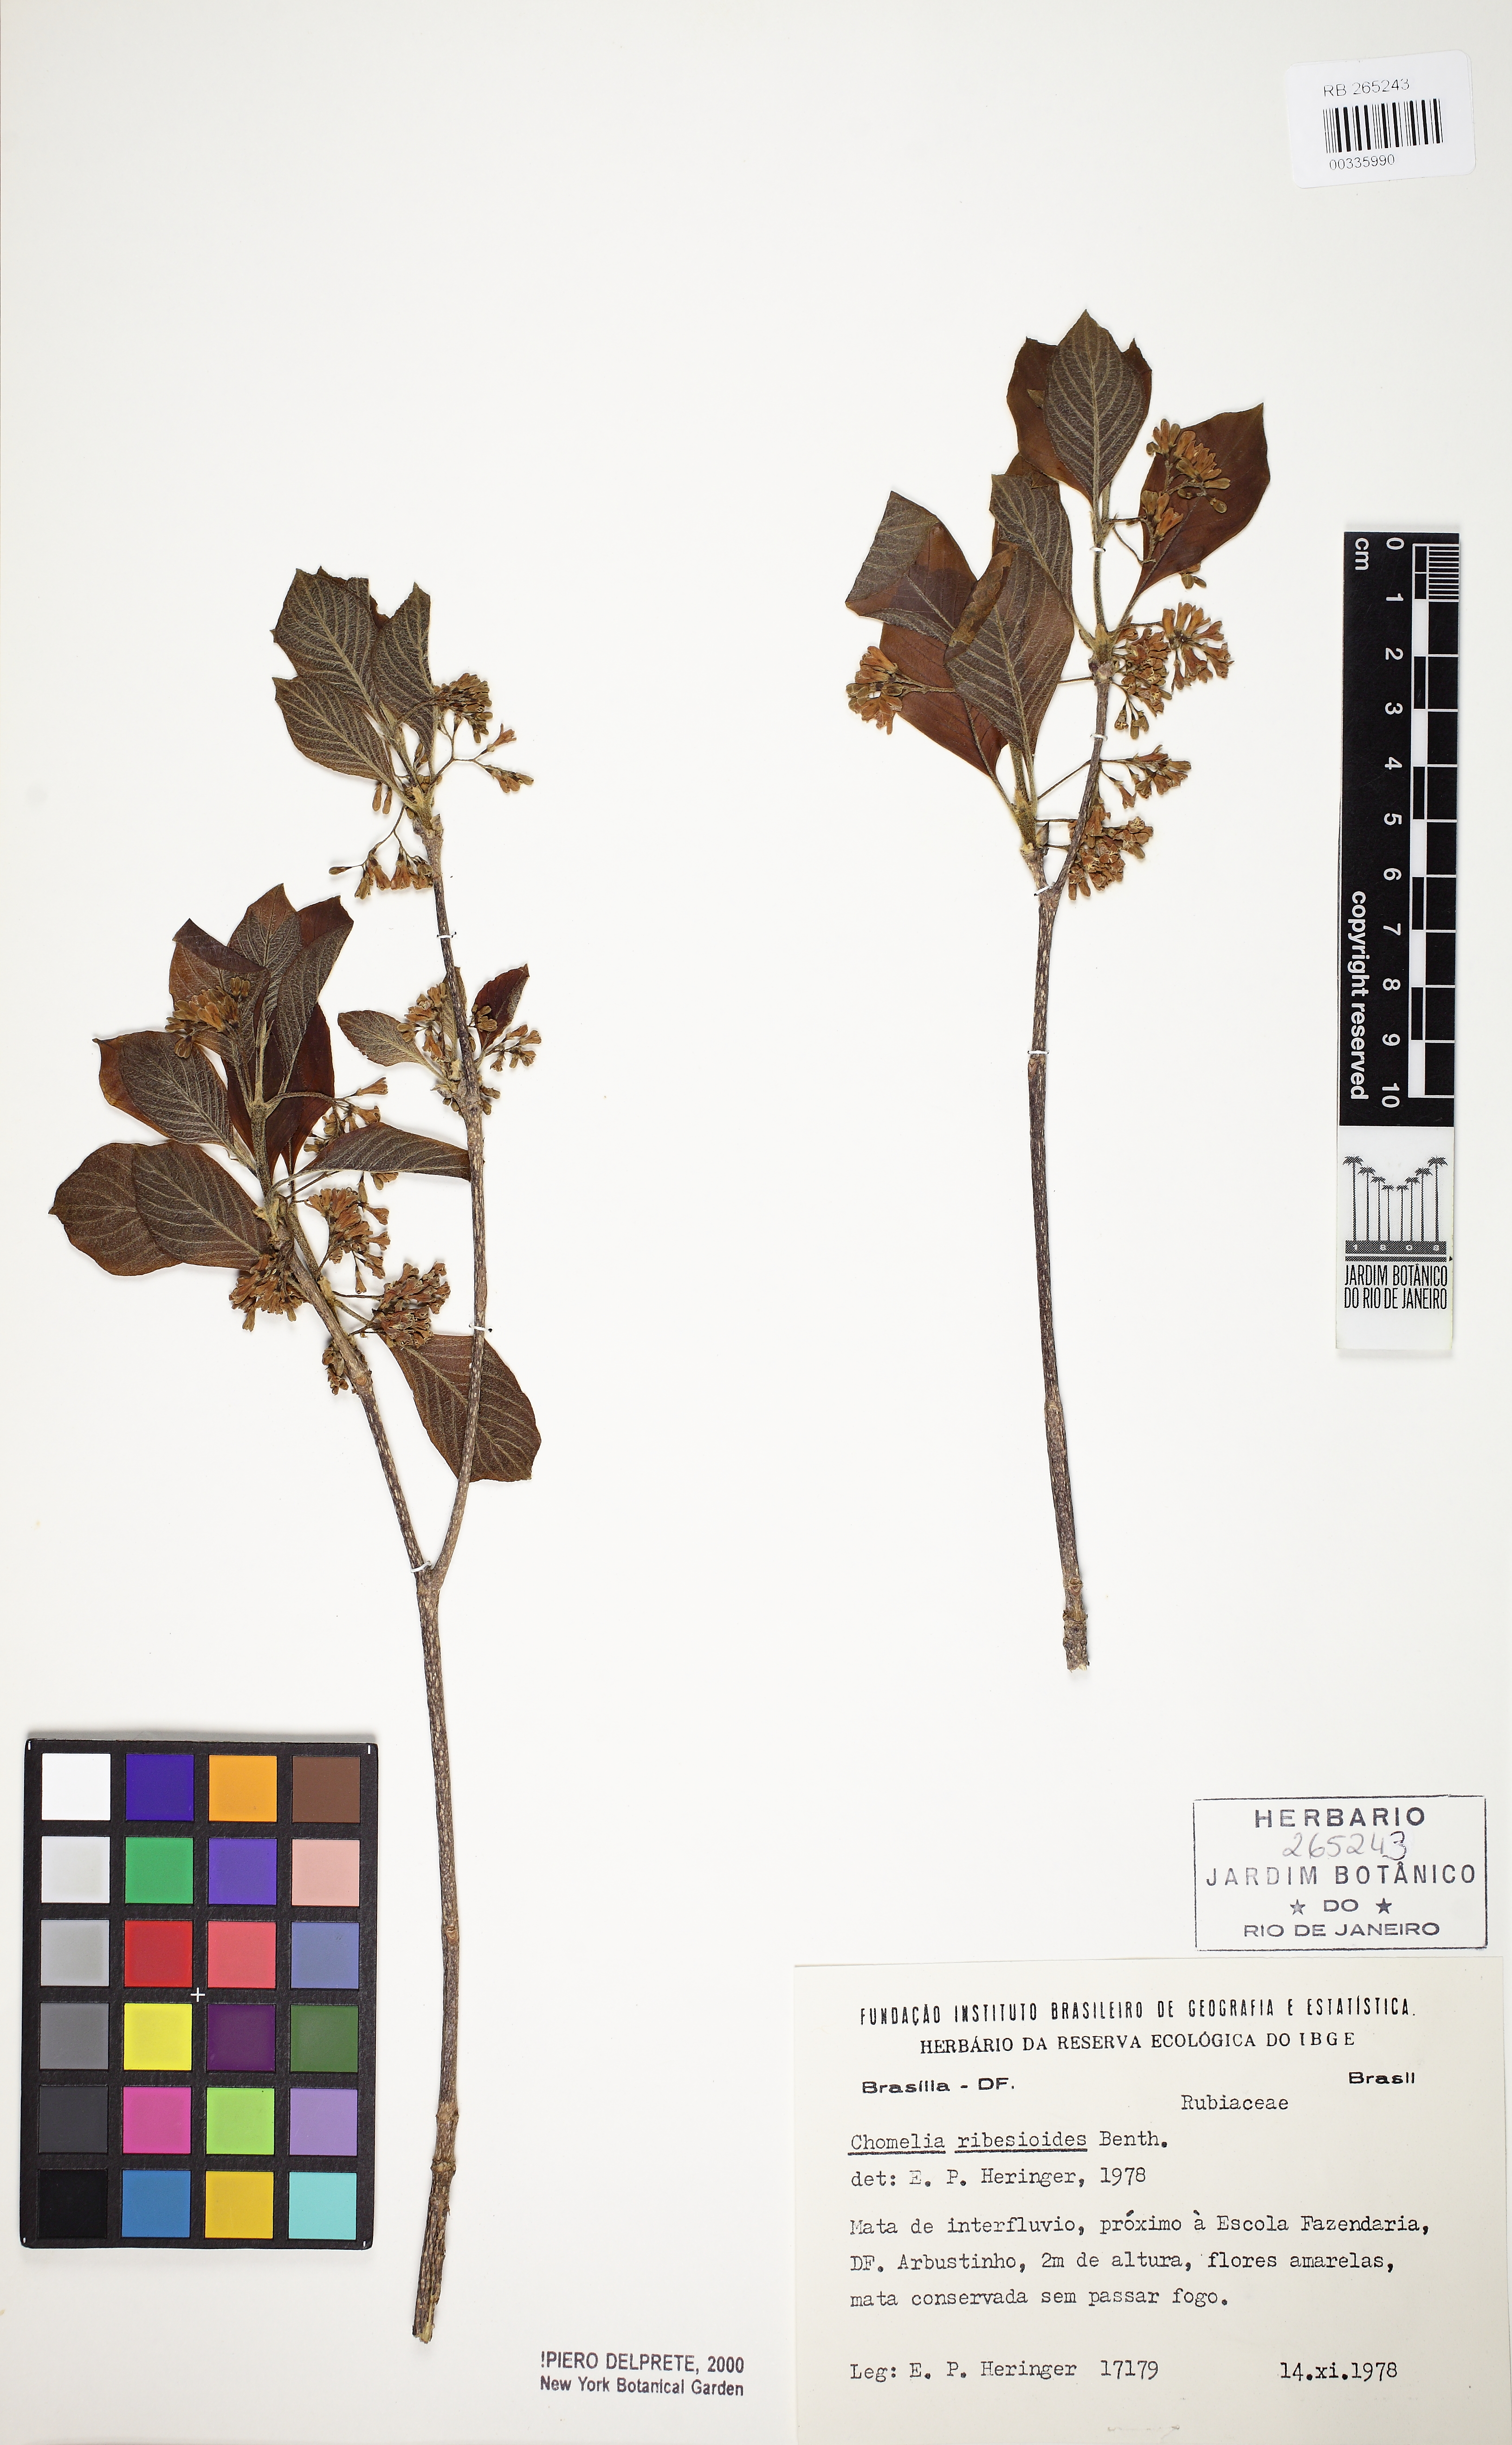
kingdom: Plantae
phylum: Tracheophyta
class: Magnoliopsida
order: Gentianales
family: Rubiaceae
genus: Chomelia
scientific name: Chomelia ribesioides
